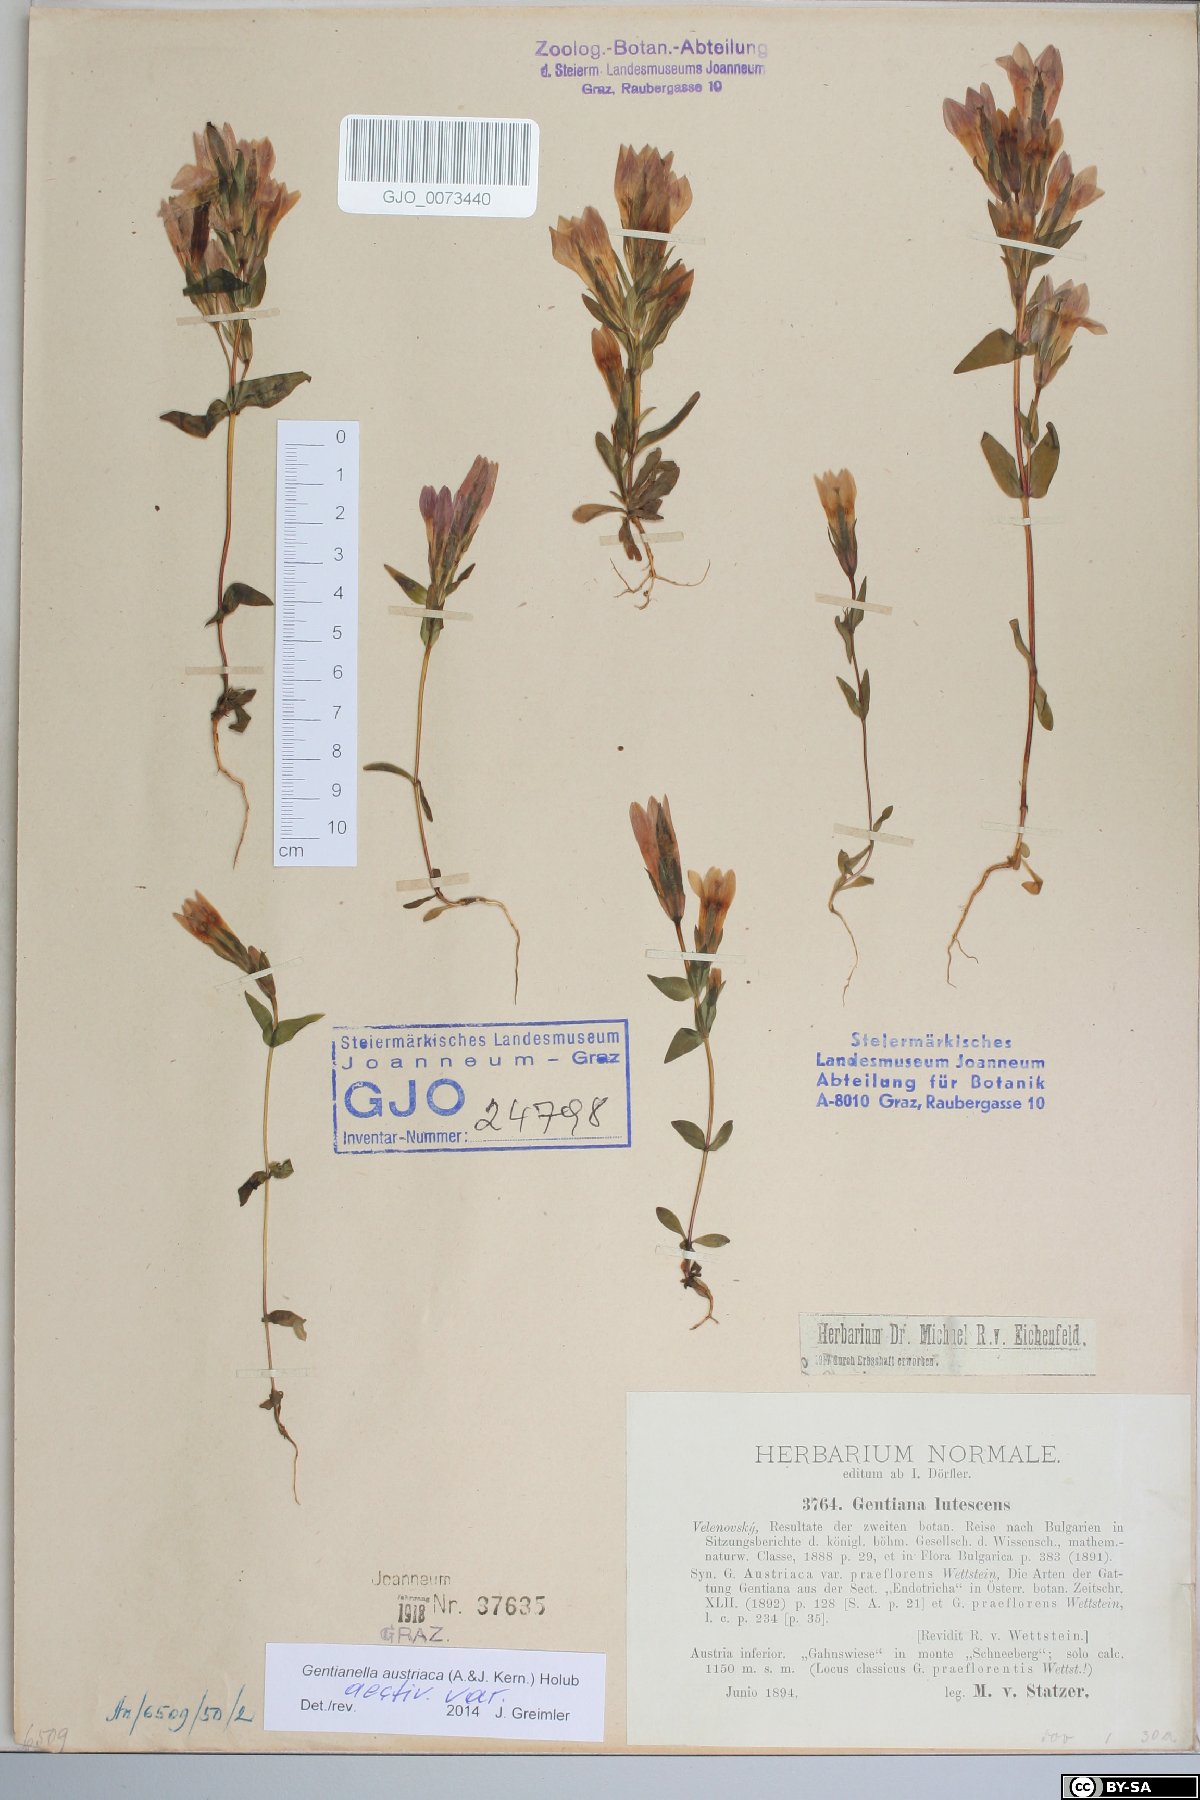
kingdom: Plantae
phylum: Tracheophyta
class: Magnoliopsida
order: Gentianales
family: Gentianaceae
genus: Gentianella
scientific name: Gentianella austriaca
